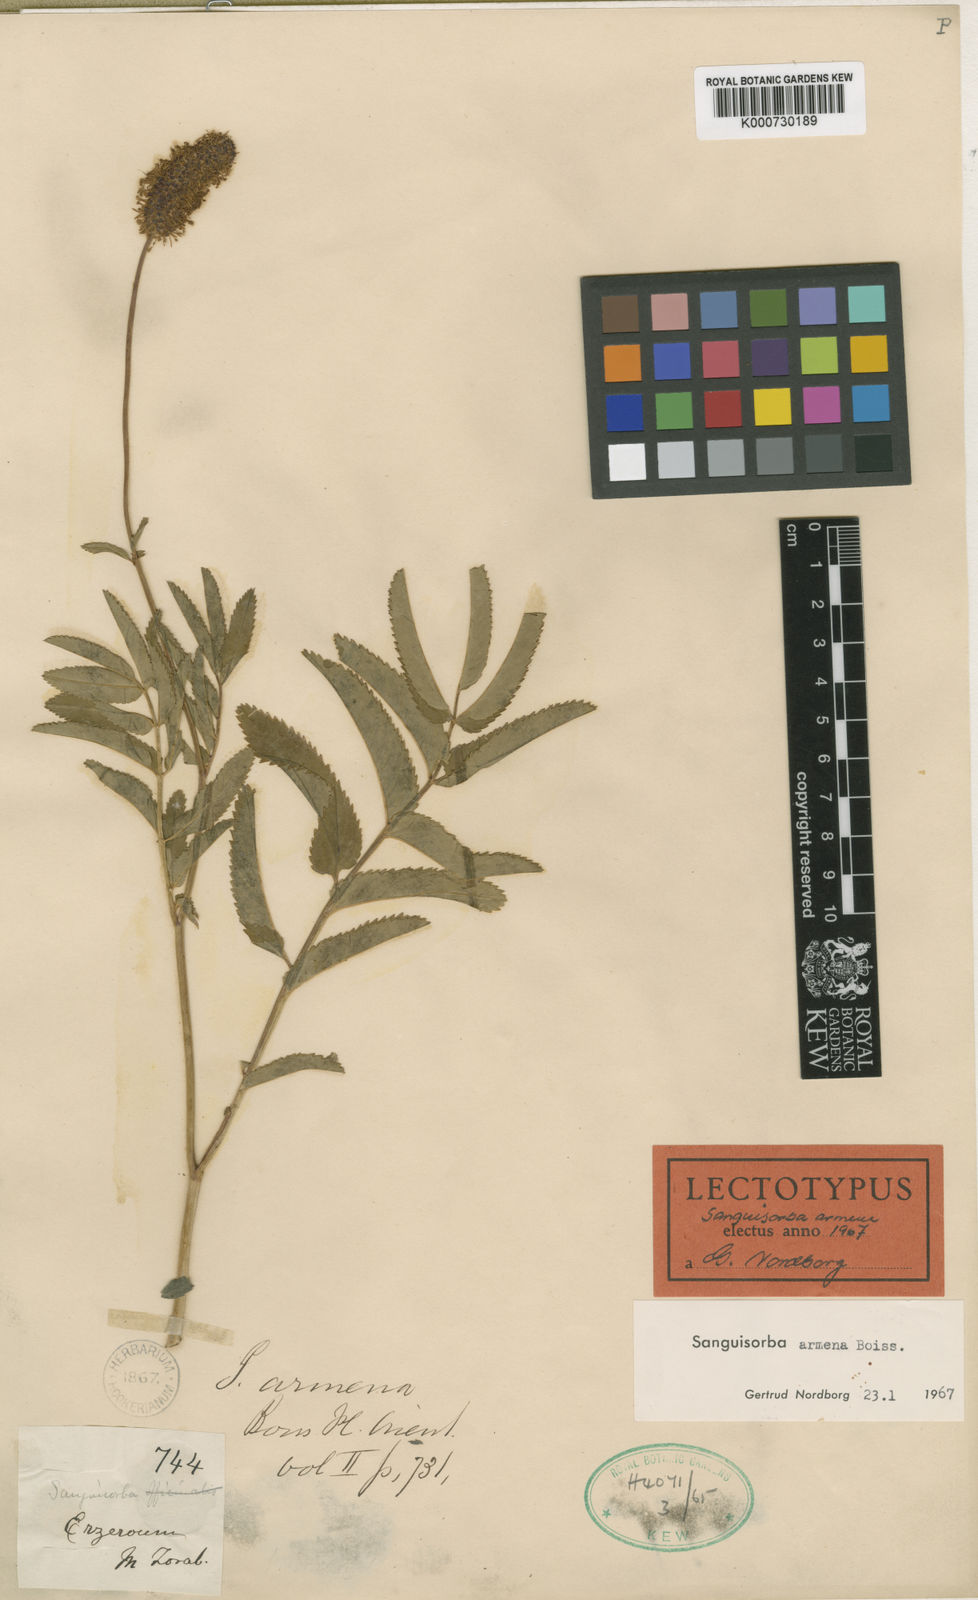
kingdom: Plantae
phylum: Tracheophyta
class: Magnoliopsida
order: Rosales
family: Rosaceae
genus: Sanguisorba
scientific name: Sanguisorba armena
